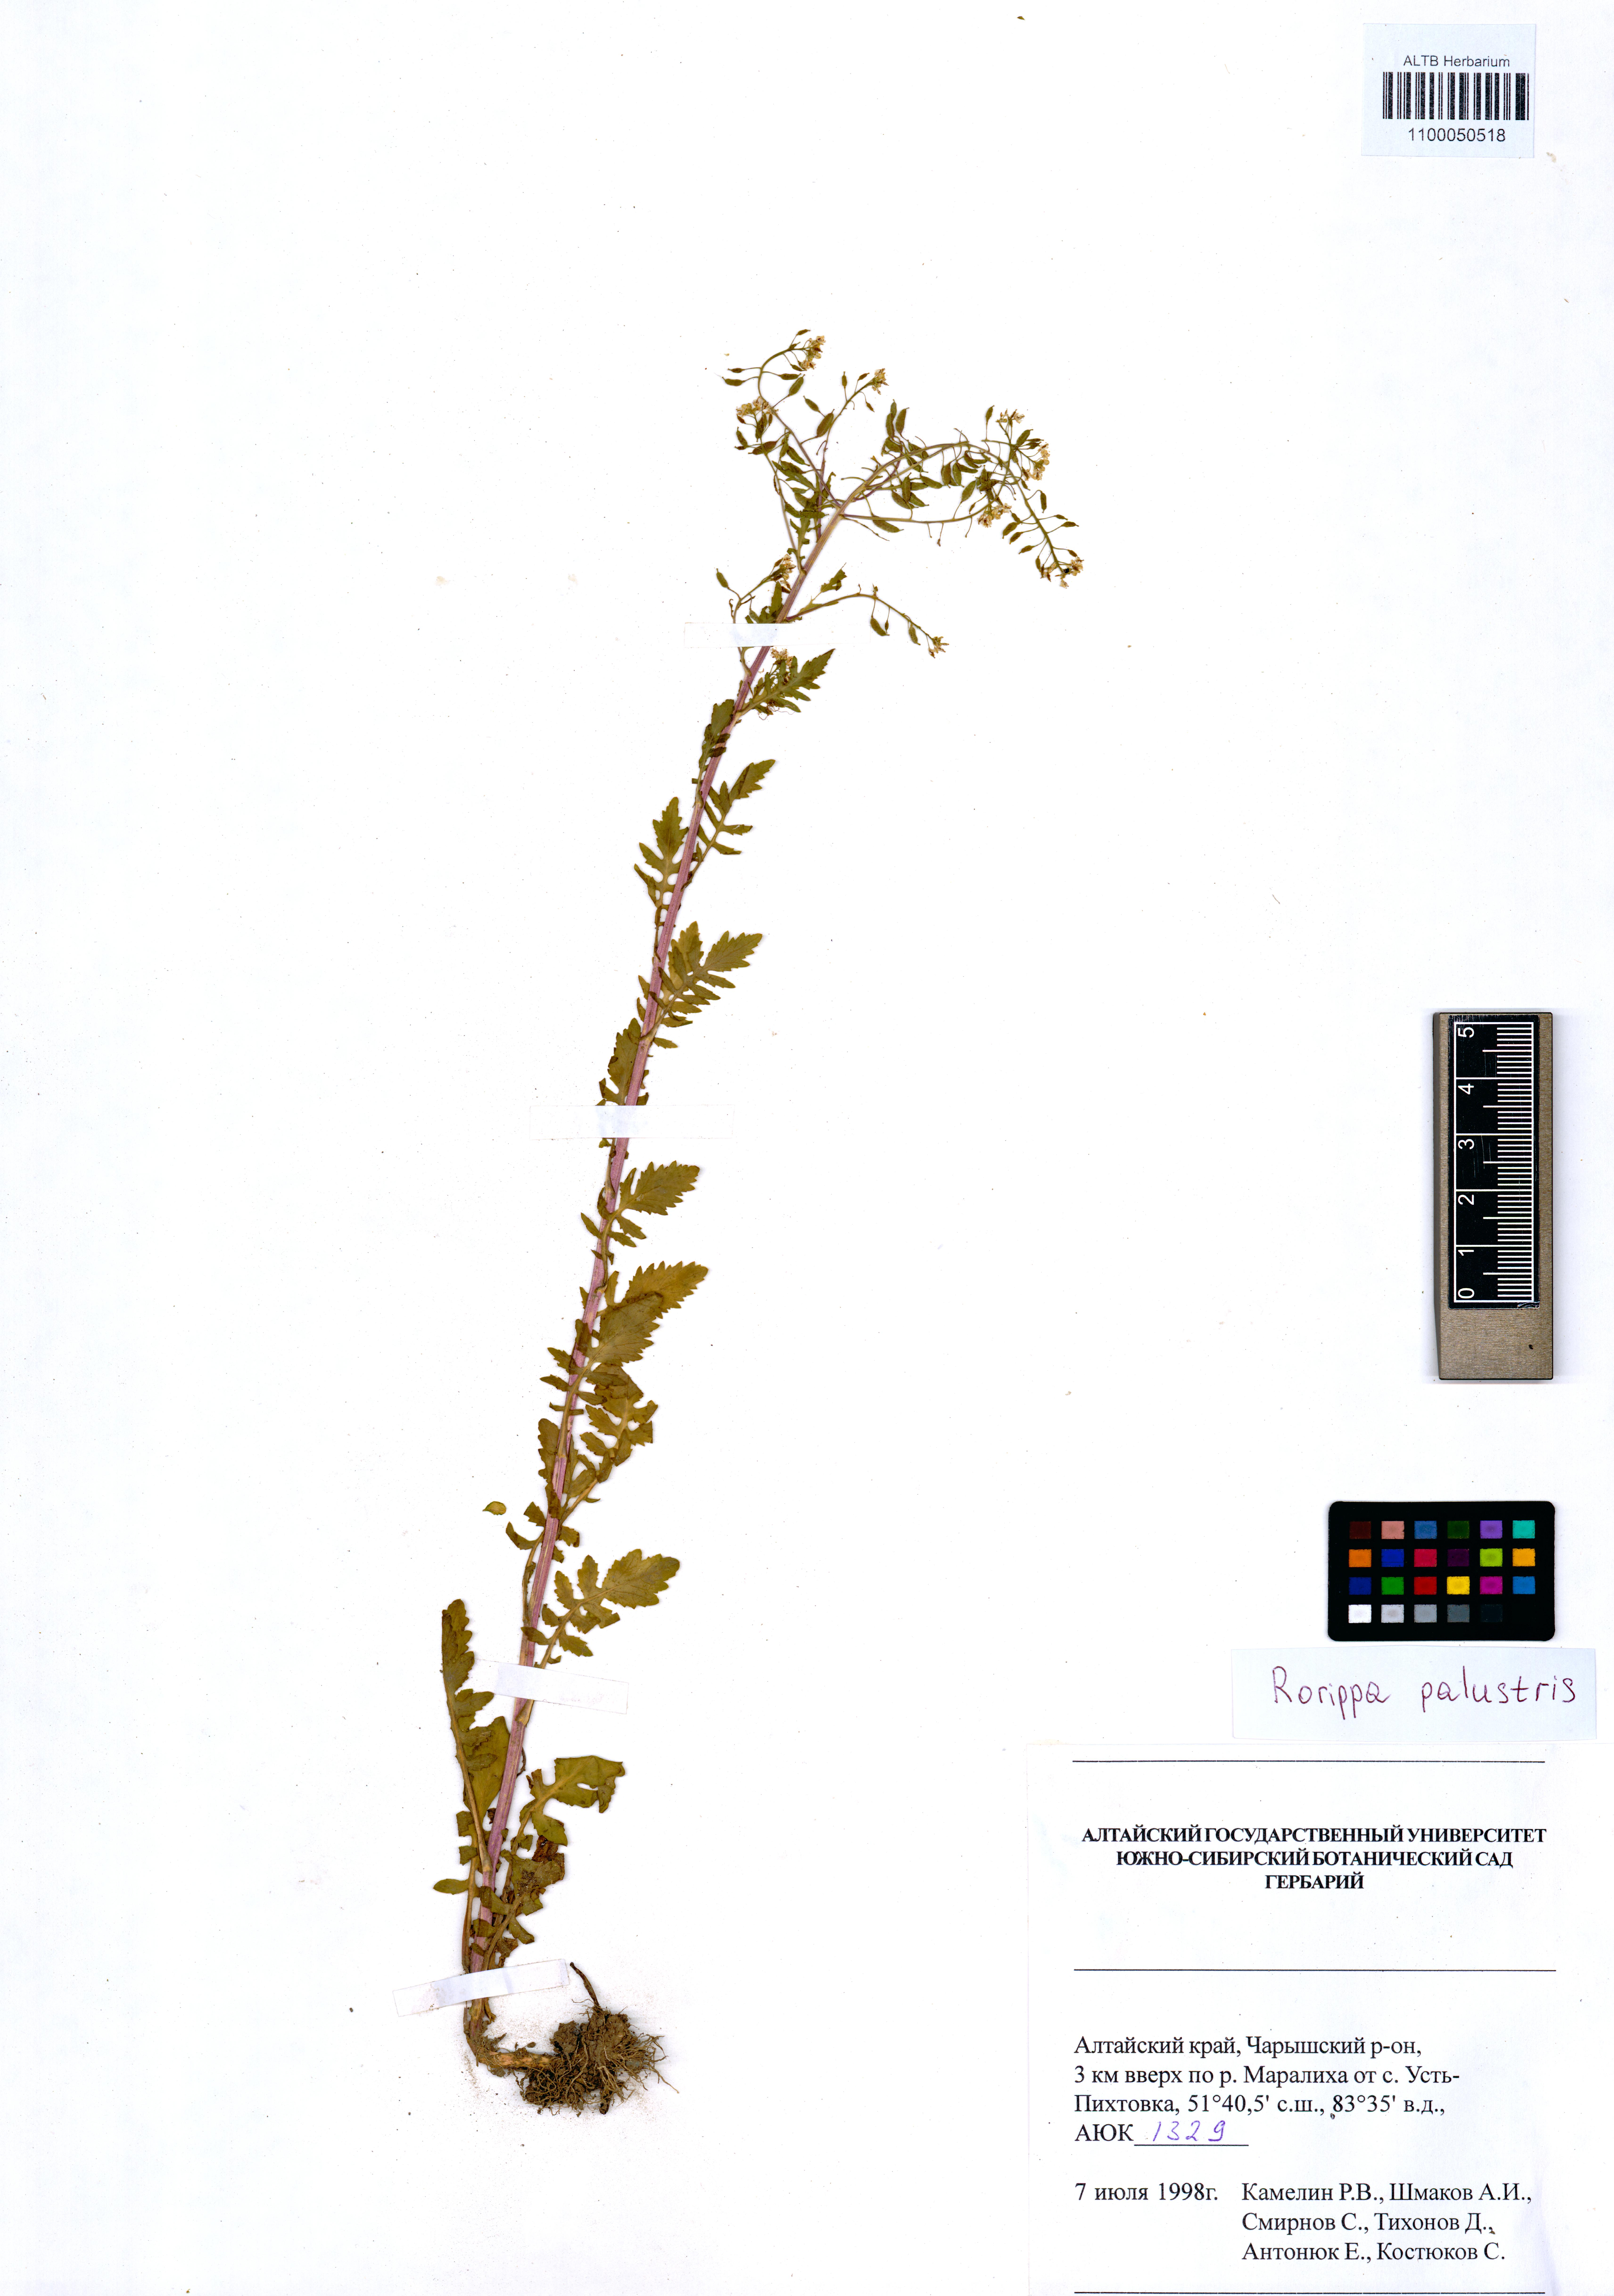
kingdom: Plantae
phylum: Tracheophyta
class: Magnoliopsida
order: Brassicales
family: Brassicaceae
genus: Rorippa
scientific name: Rorippa palustris
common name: Marsh yellow-cress
